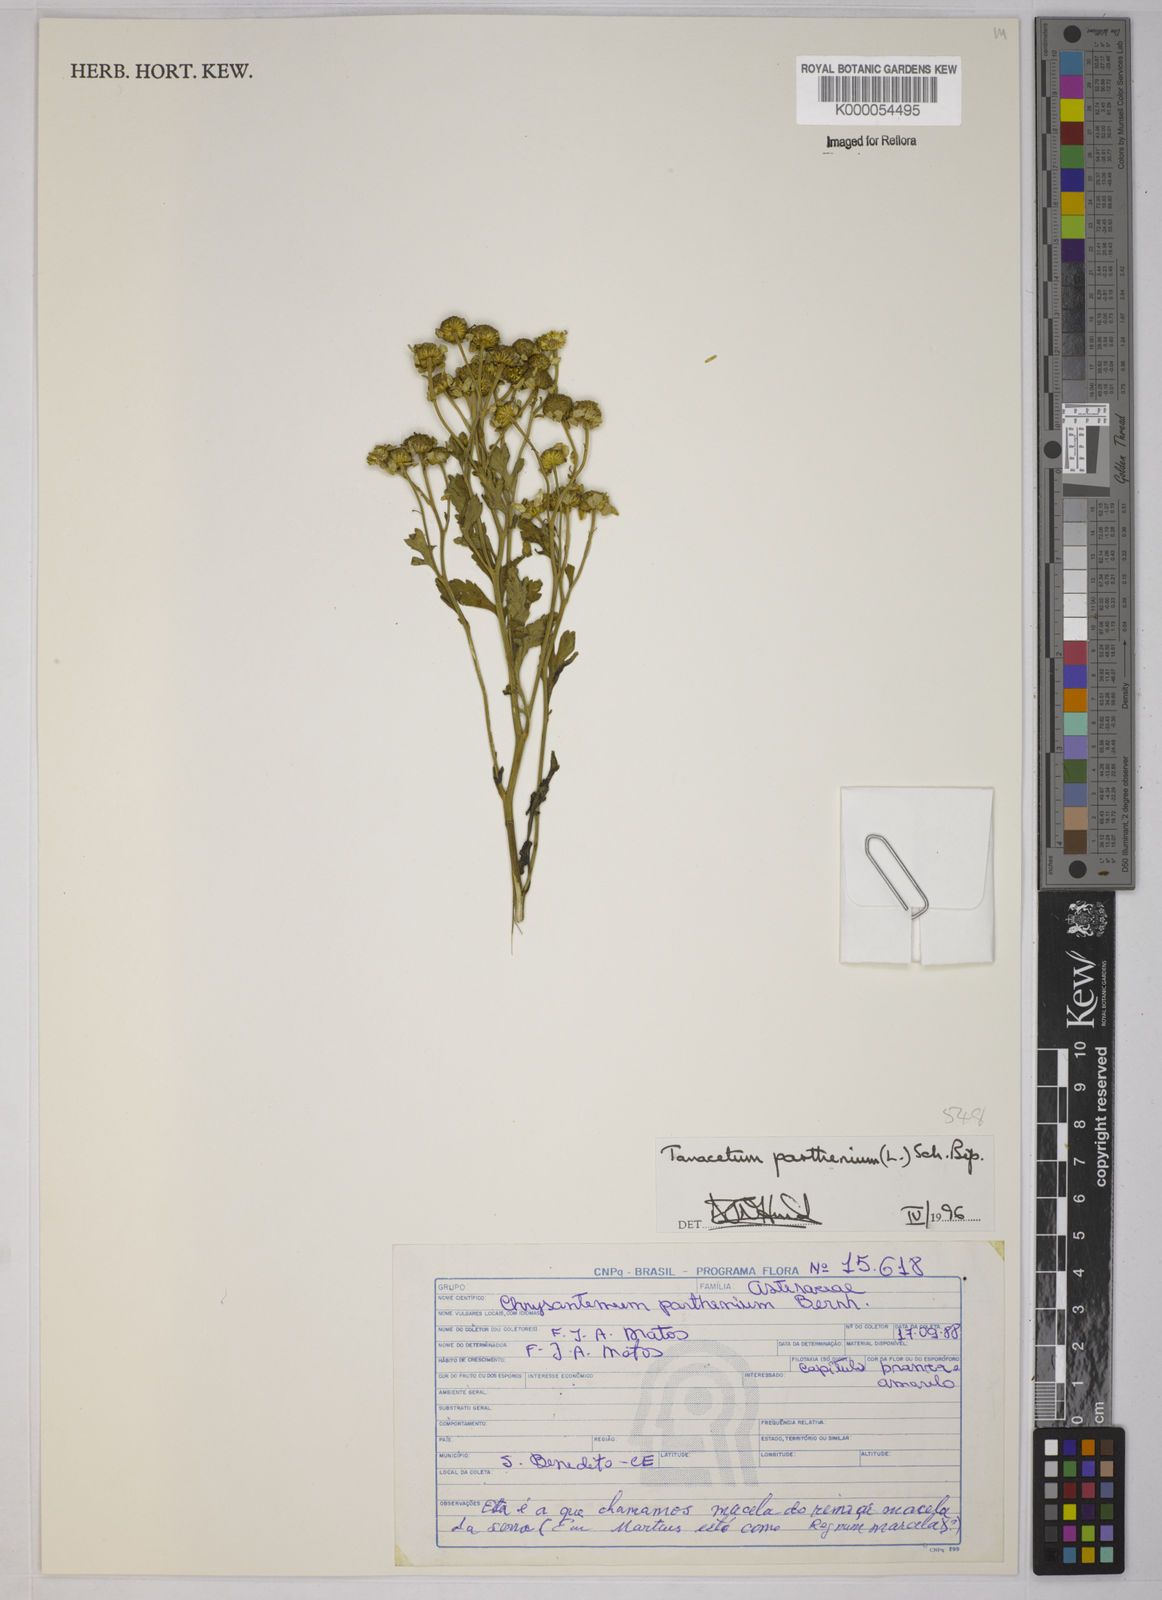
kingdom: Plantae
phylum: Tracheophyta
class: Magnoliopsida
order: Asterales
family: Asteraceae
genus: Tanacetum
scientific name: Tanacetum
